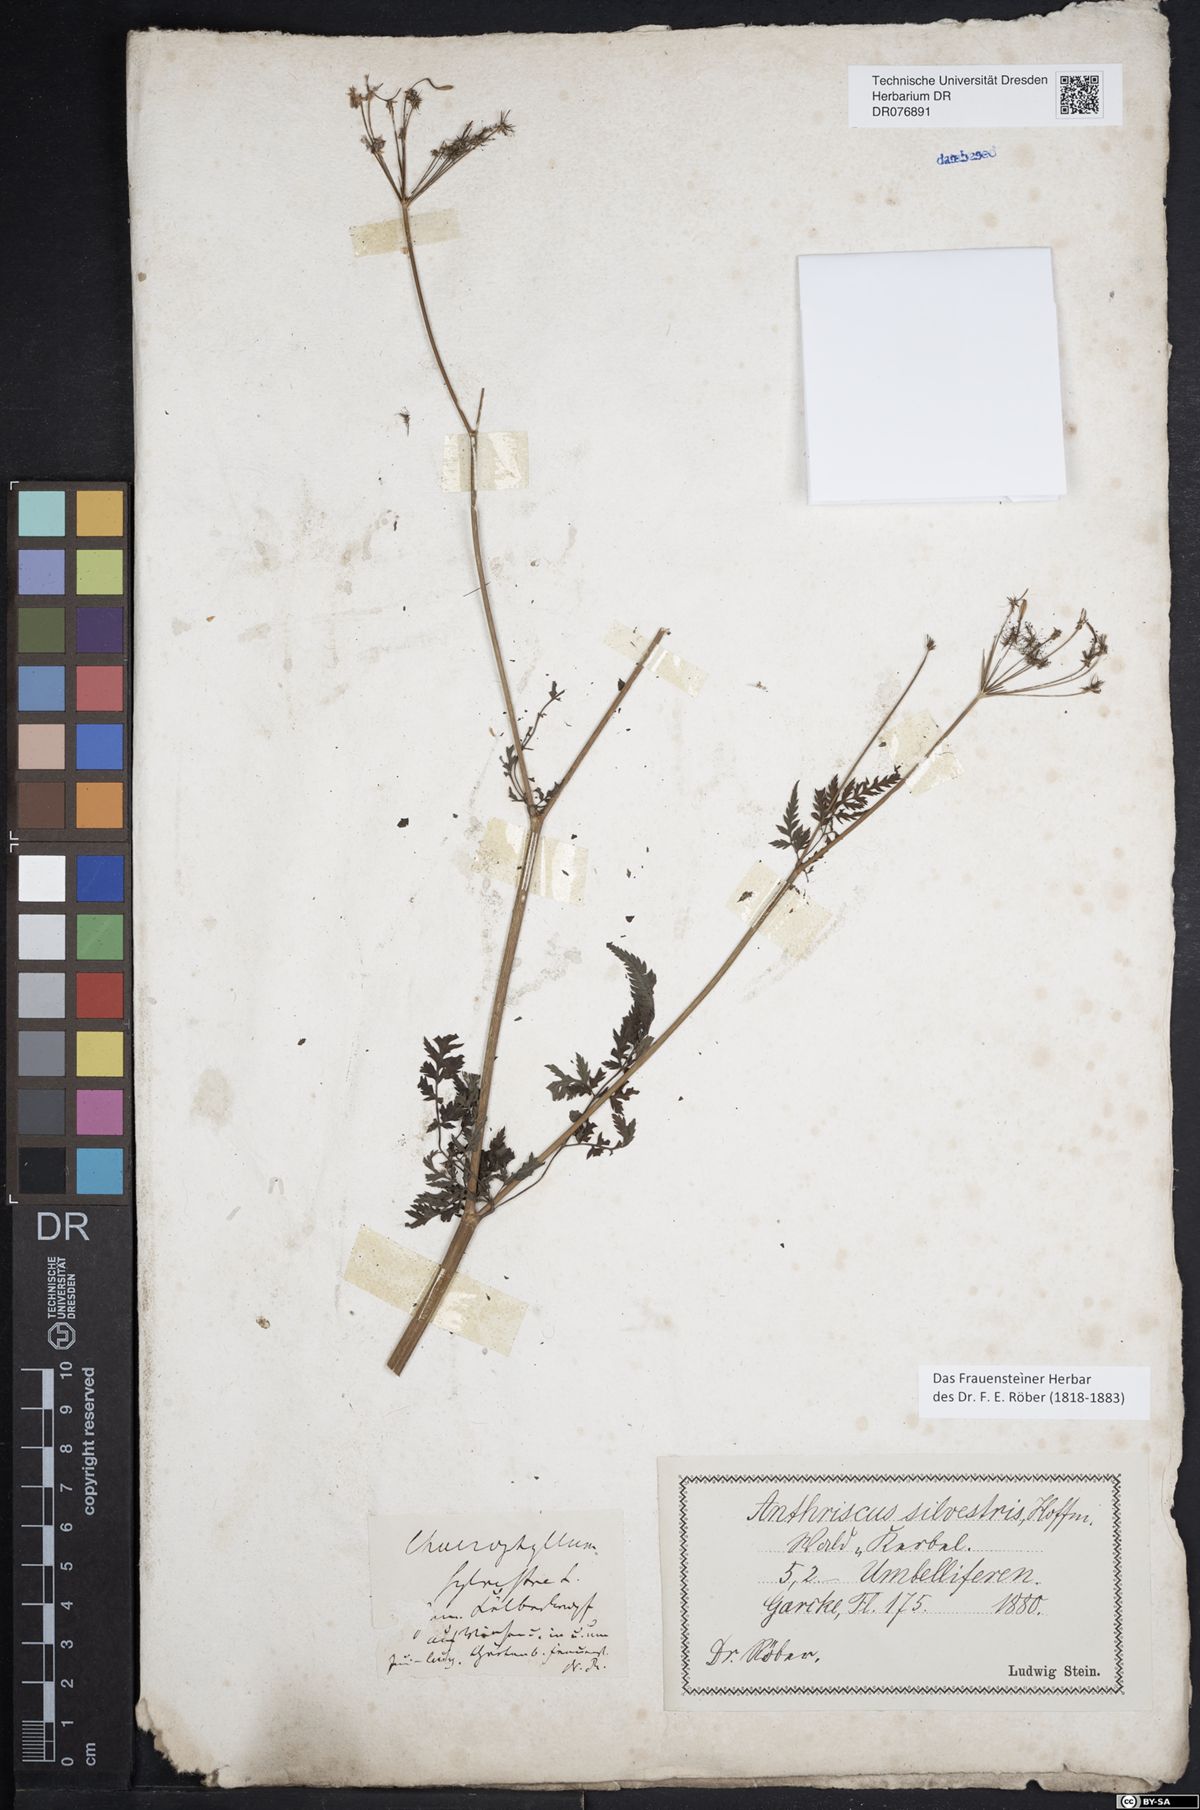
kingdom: Plantae
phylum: Tracheophyta
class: Magnoliopsida
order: Apiales
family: Apiaceae
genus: Anthriscus
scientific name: Anthriscus sylvestris
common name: Cow parsley
